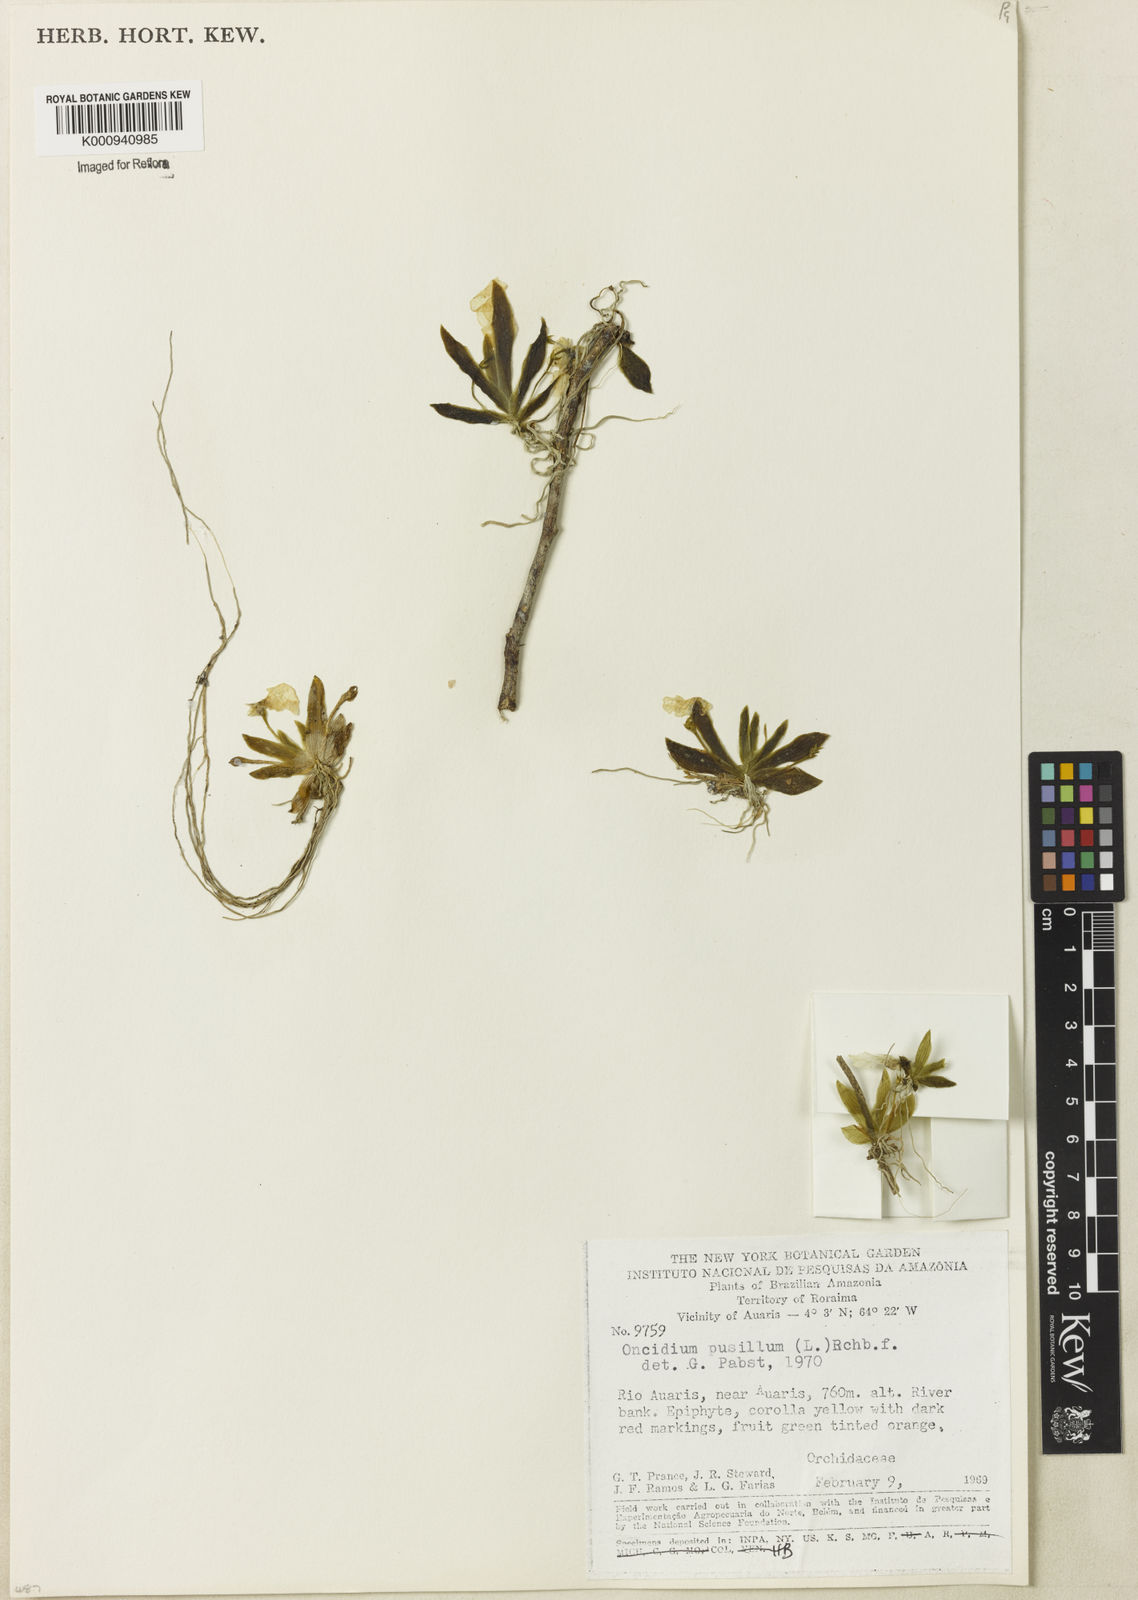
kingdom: Plantae
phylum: Tracheophyta
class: Liliopsida
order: Asparagales
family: Orchidaceae
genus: Erycina
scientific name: Erycina pusilla
